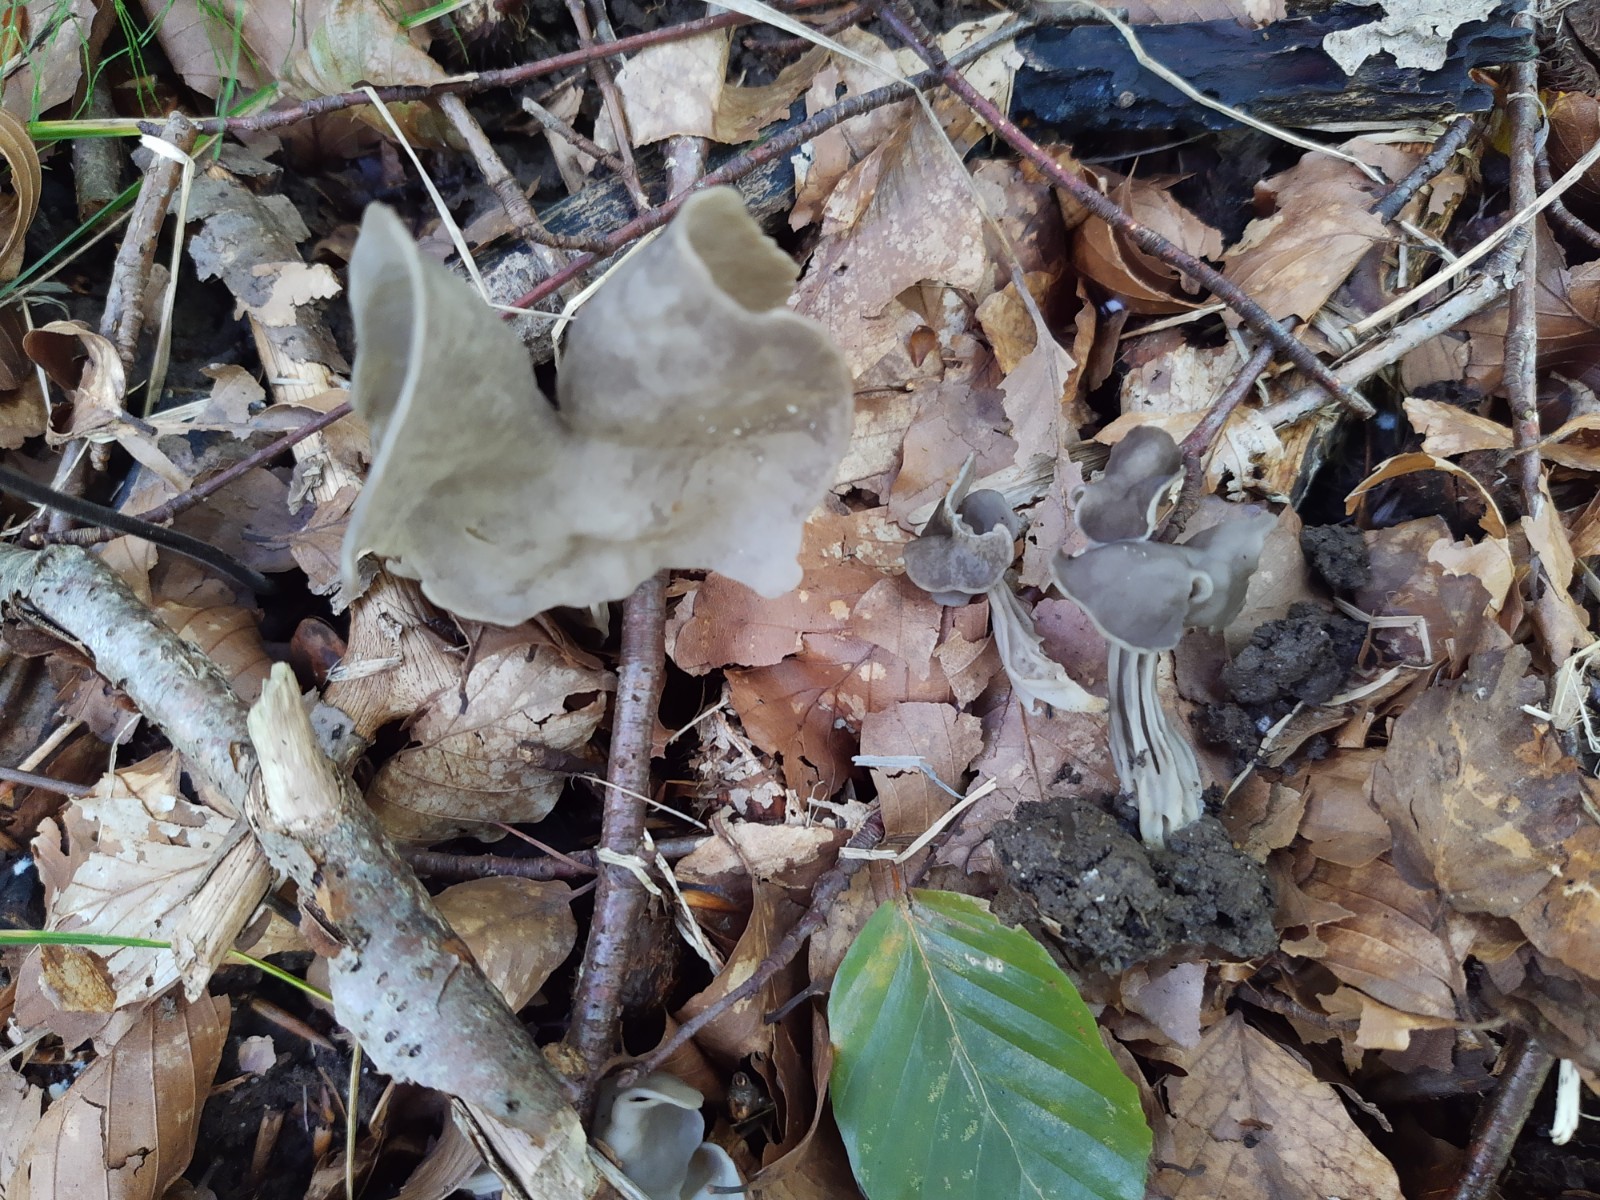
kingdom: Fungi
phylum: Ascomycota
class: Pezizomycetes
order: Pezizales
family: Helvellaceae
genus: Helvella
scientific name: Helvella lacunosa
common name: grubet foldhat
